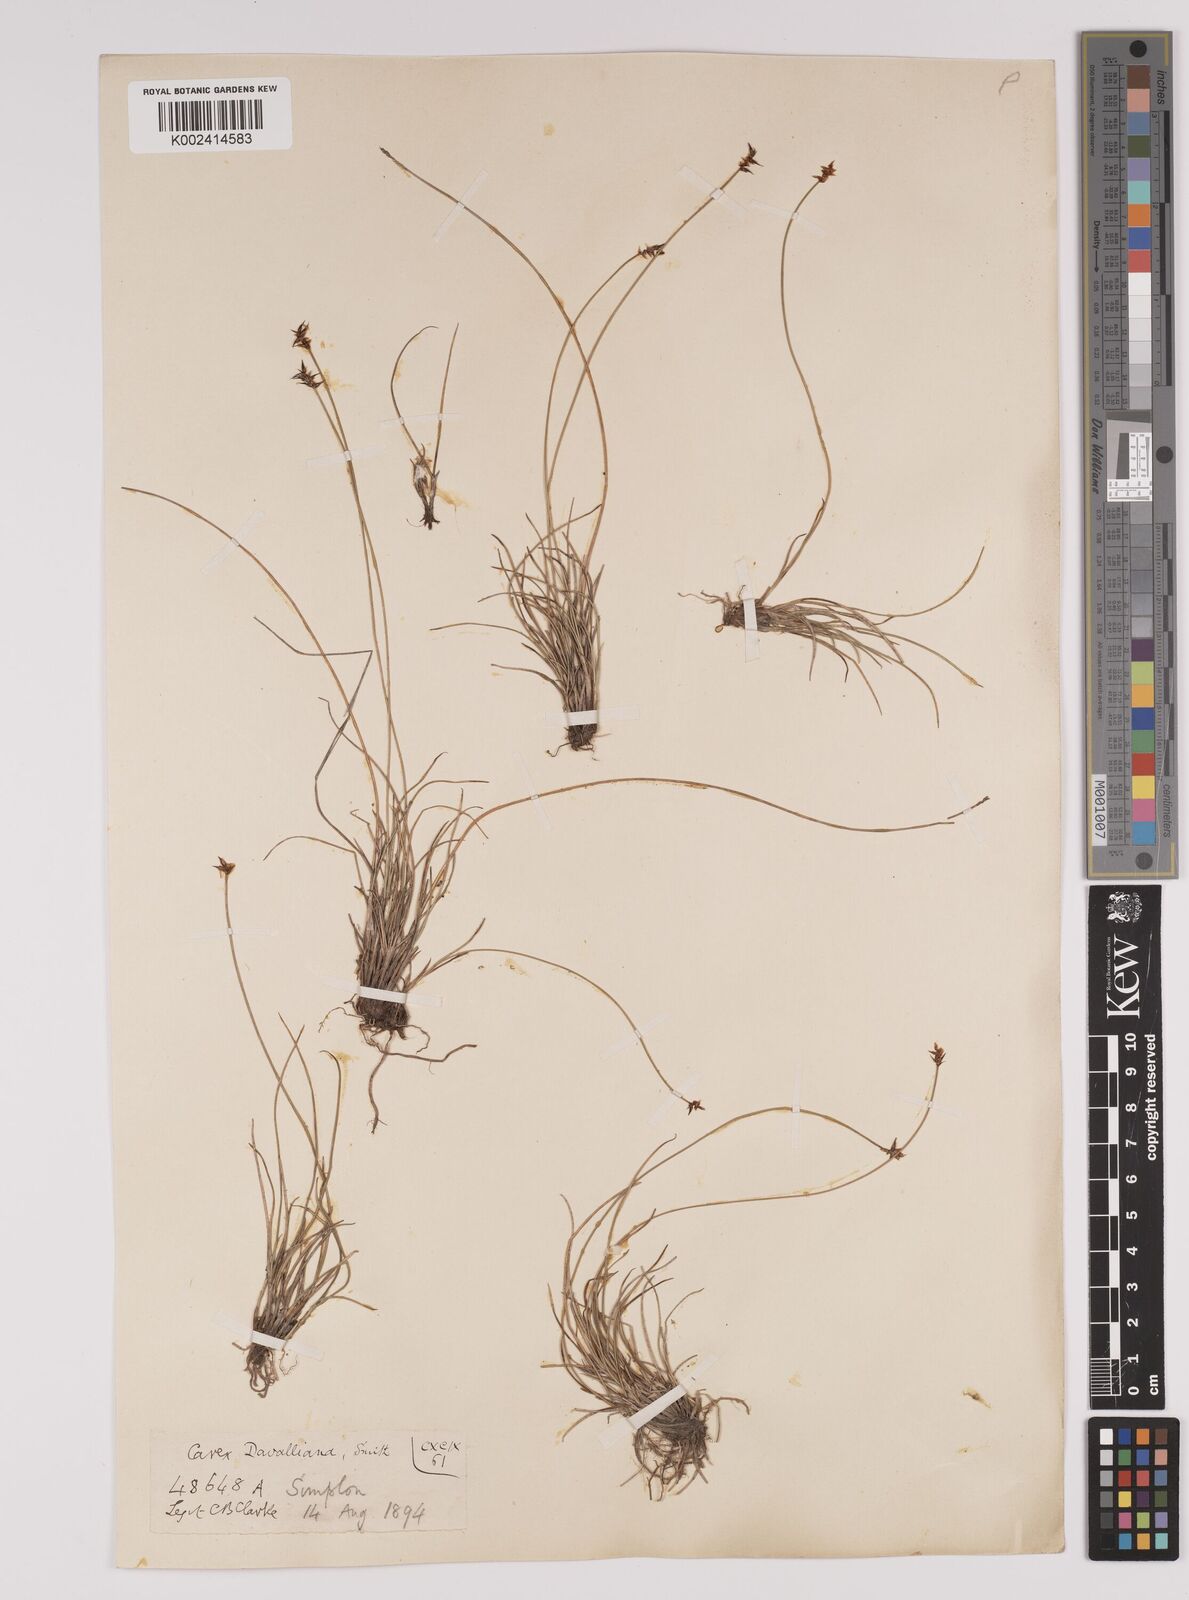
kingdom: Plantae
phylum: Tracheophyta
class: Liliopsida
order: Poales
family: Cyperaceae
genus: Carex
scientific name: Carex davalliana
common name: Davall's sedge
